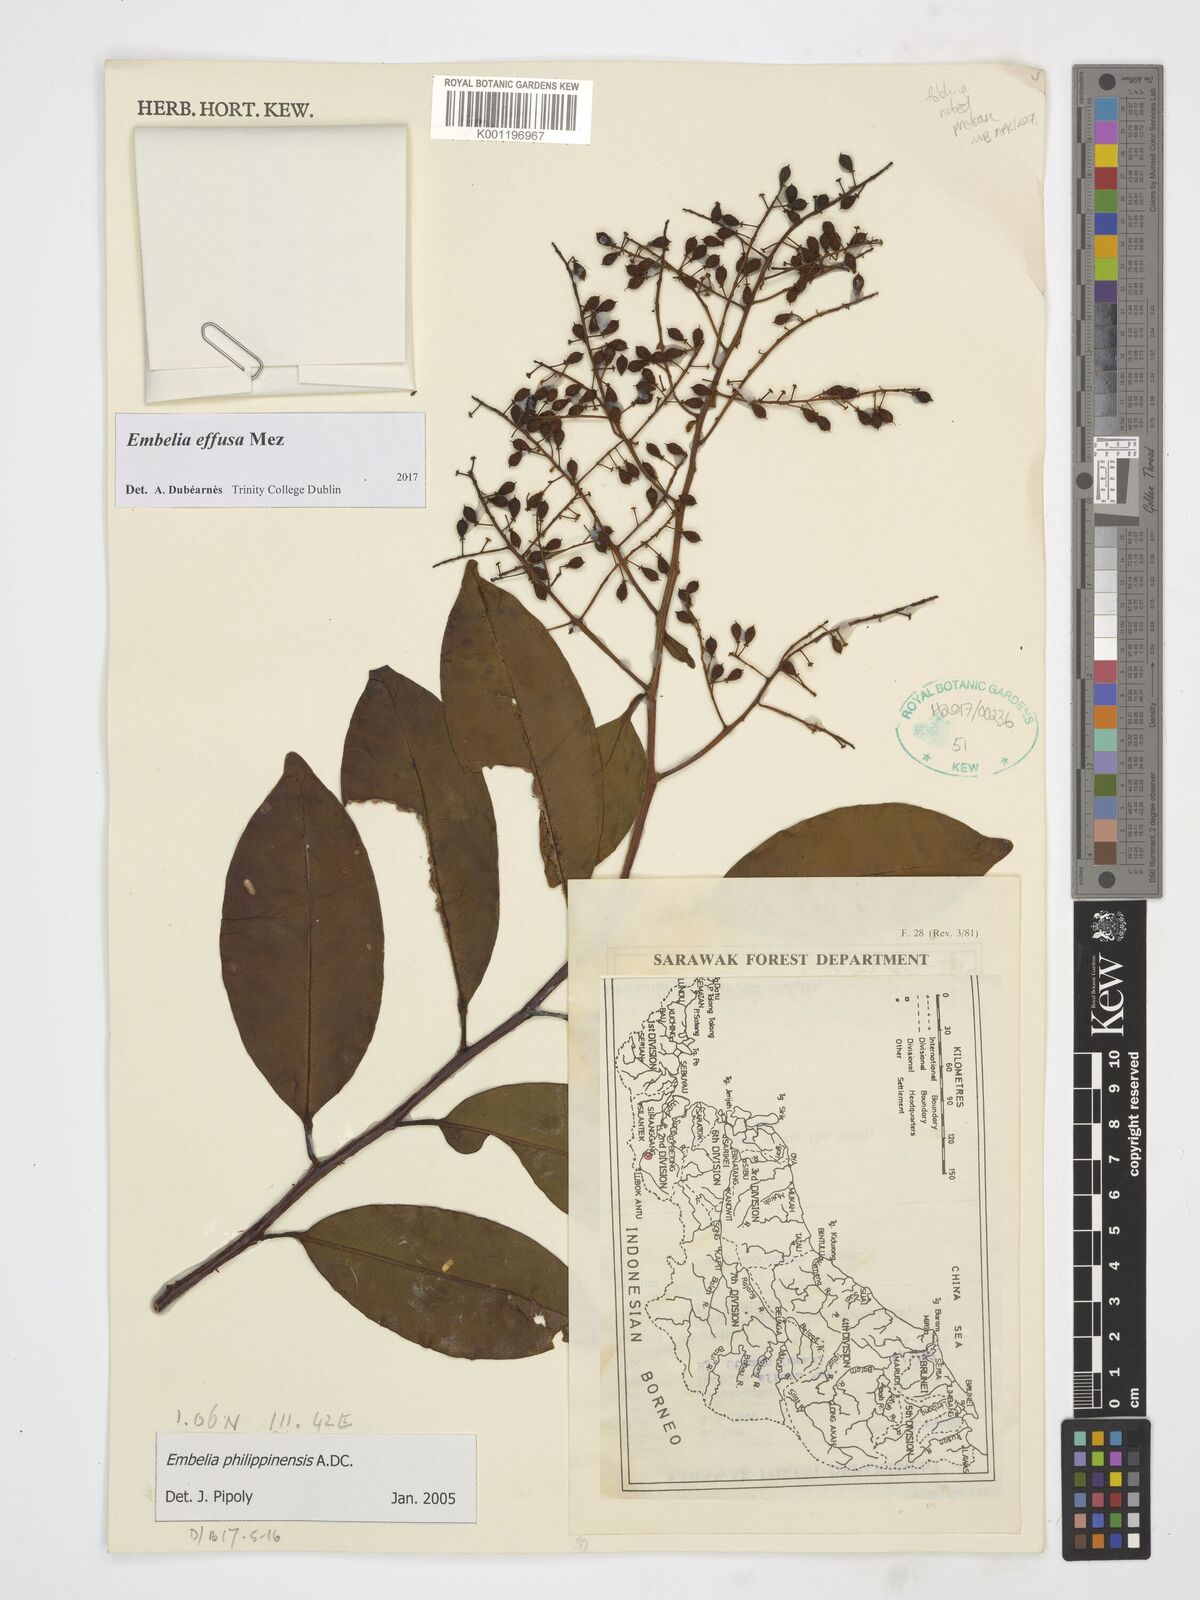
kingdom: Plantae
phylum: Tracheophyta
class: Magnoliopsida
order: Ericales
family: Primulaceae
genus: Embelia
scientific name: Embelia effusa
